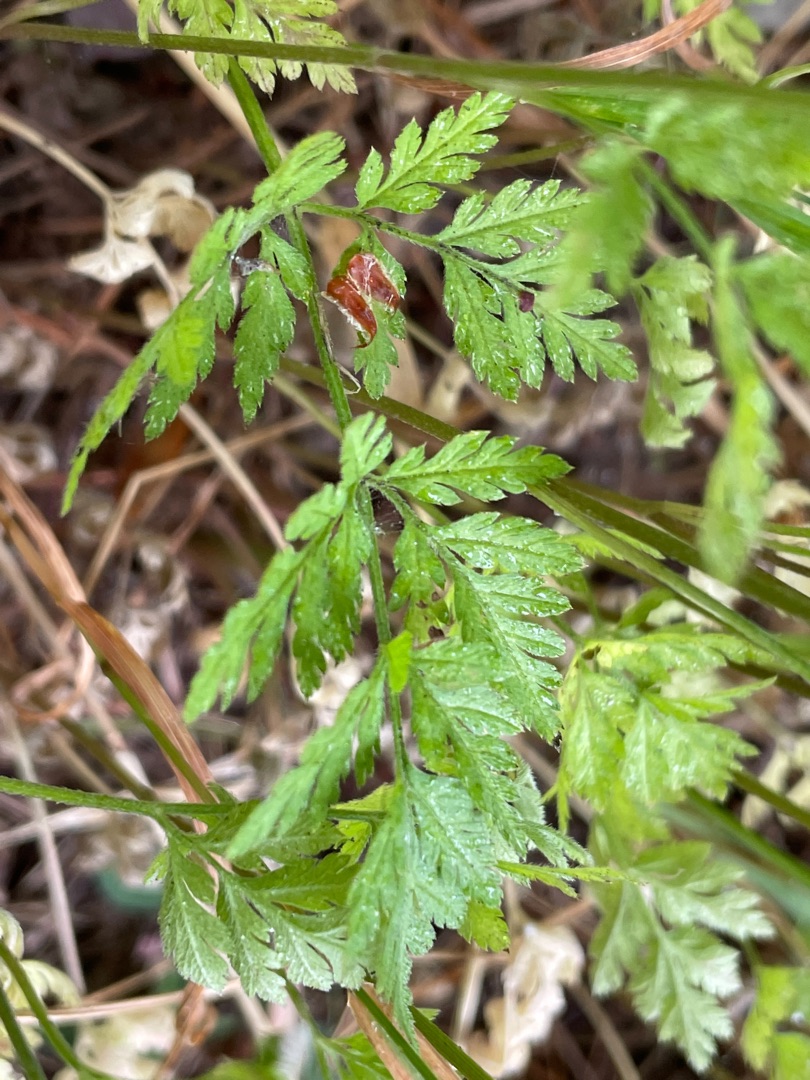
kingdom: Plantae
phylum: Tracheophyta
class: Magnoliopsida
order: Apiales
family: Apiaceae
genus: Torilis
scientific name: Torilis japonica
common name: Hvas randfrø
